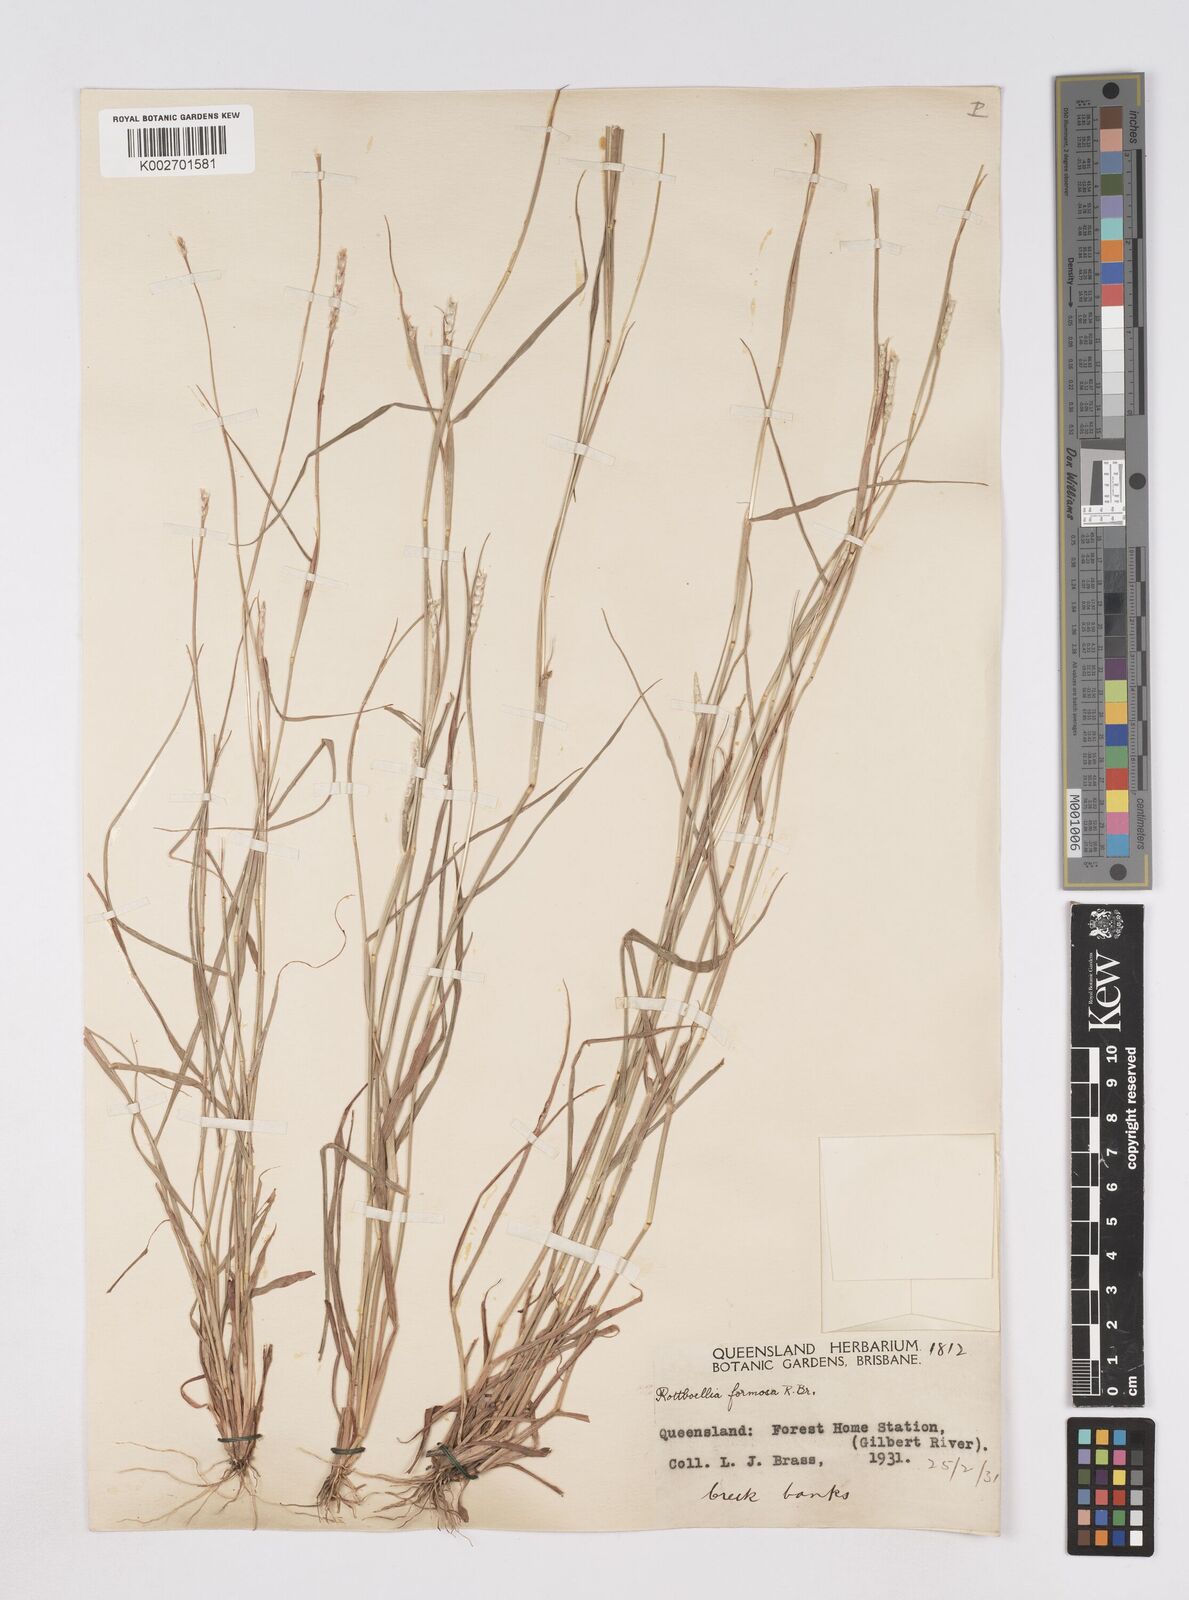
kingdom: Plantae
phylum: Tracheophyta
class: Liliopsida
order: Poales
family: Poaceae
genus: Heteropholis
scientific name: Heteropholis
